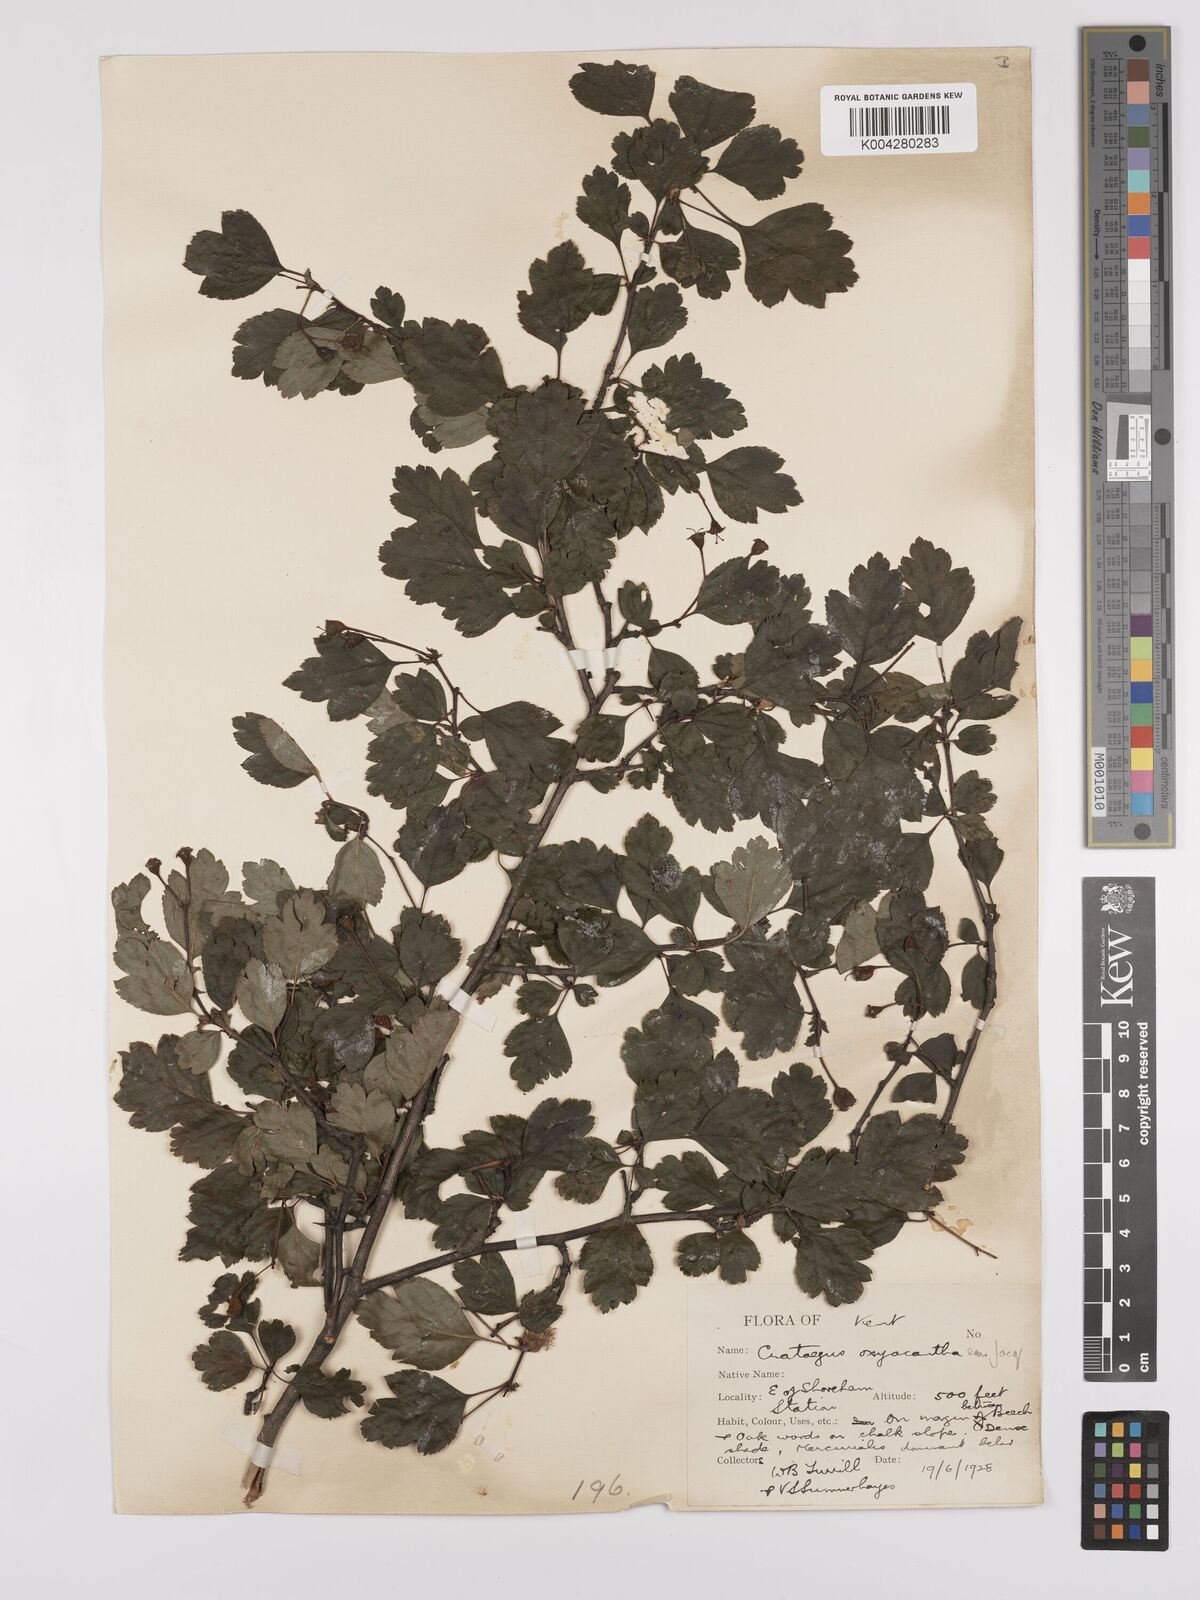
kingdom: Plantae
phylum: Tracheophyta
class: Magnoliopsida
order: Rosales
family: Rosaceae
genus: Crataegus
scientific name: Crataegus laevigata
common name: Midland hawthorn
